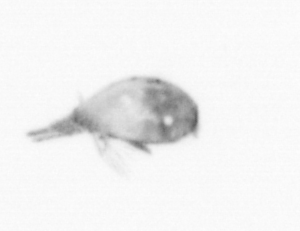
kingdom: Animalia
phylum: Arthropoda
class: Maxillopoda
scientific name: Maxillopoda
